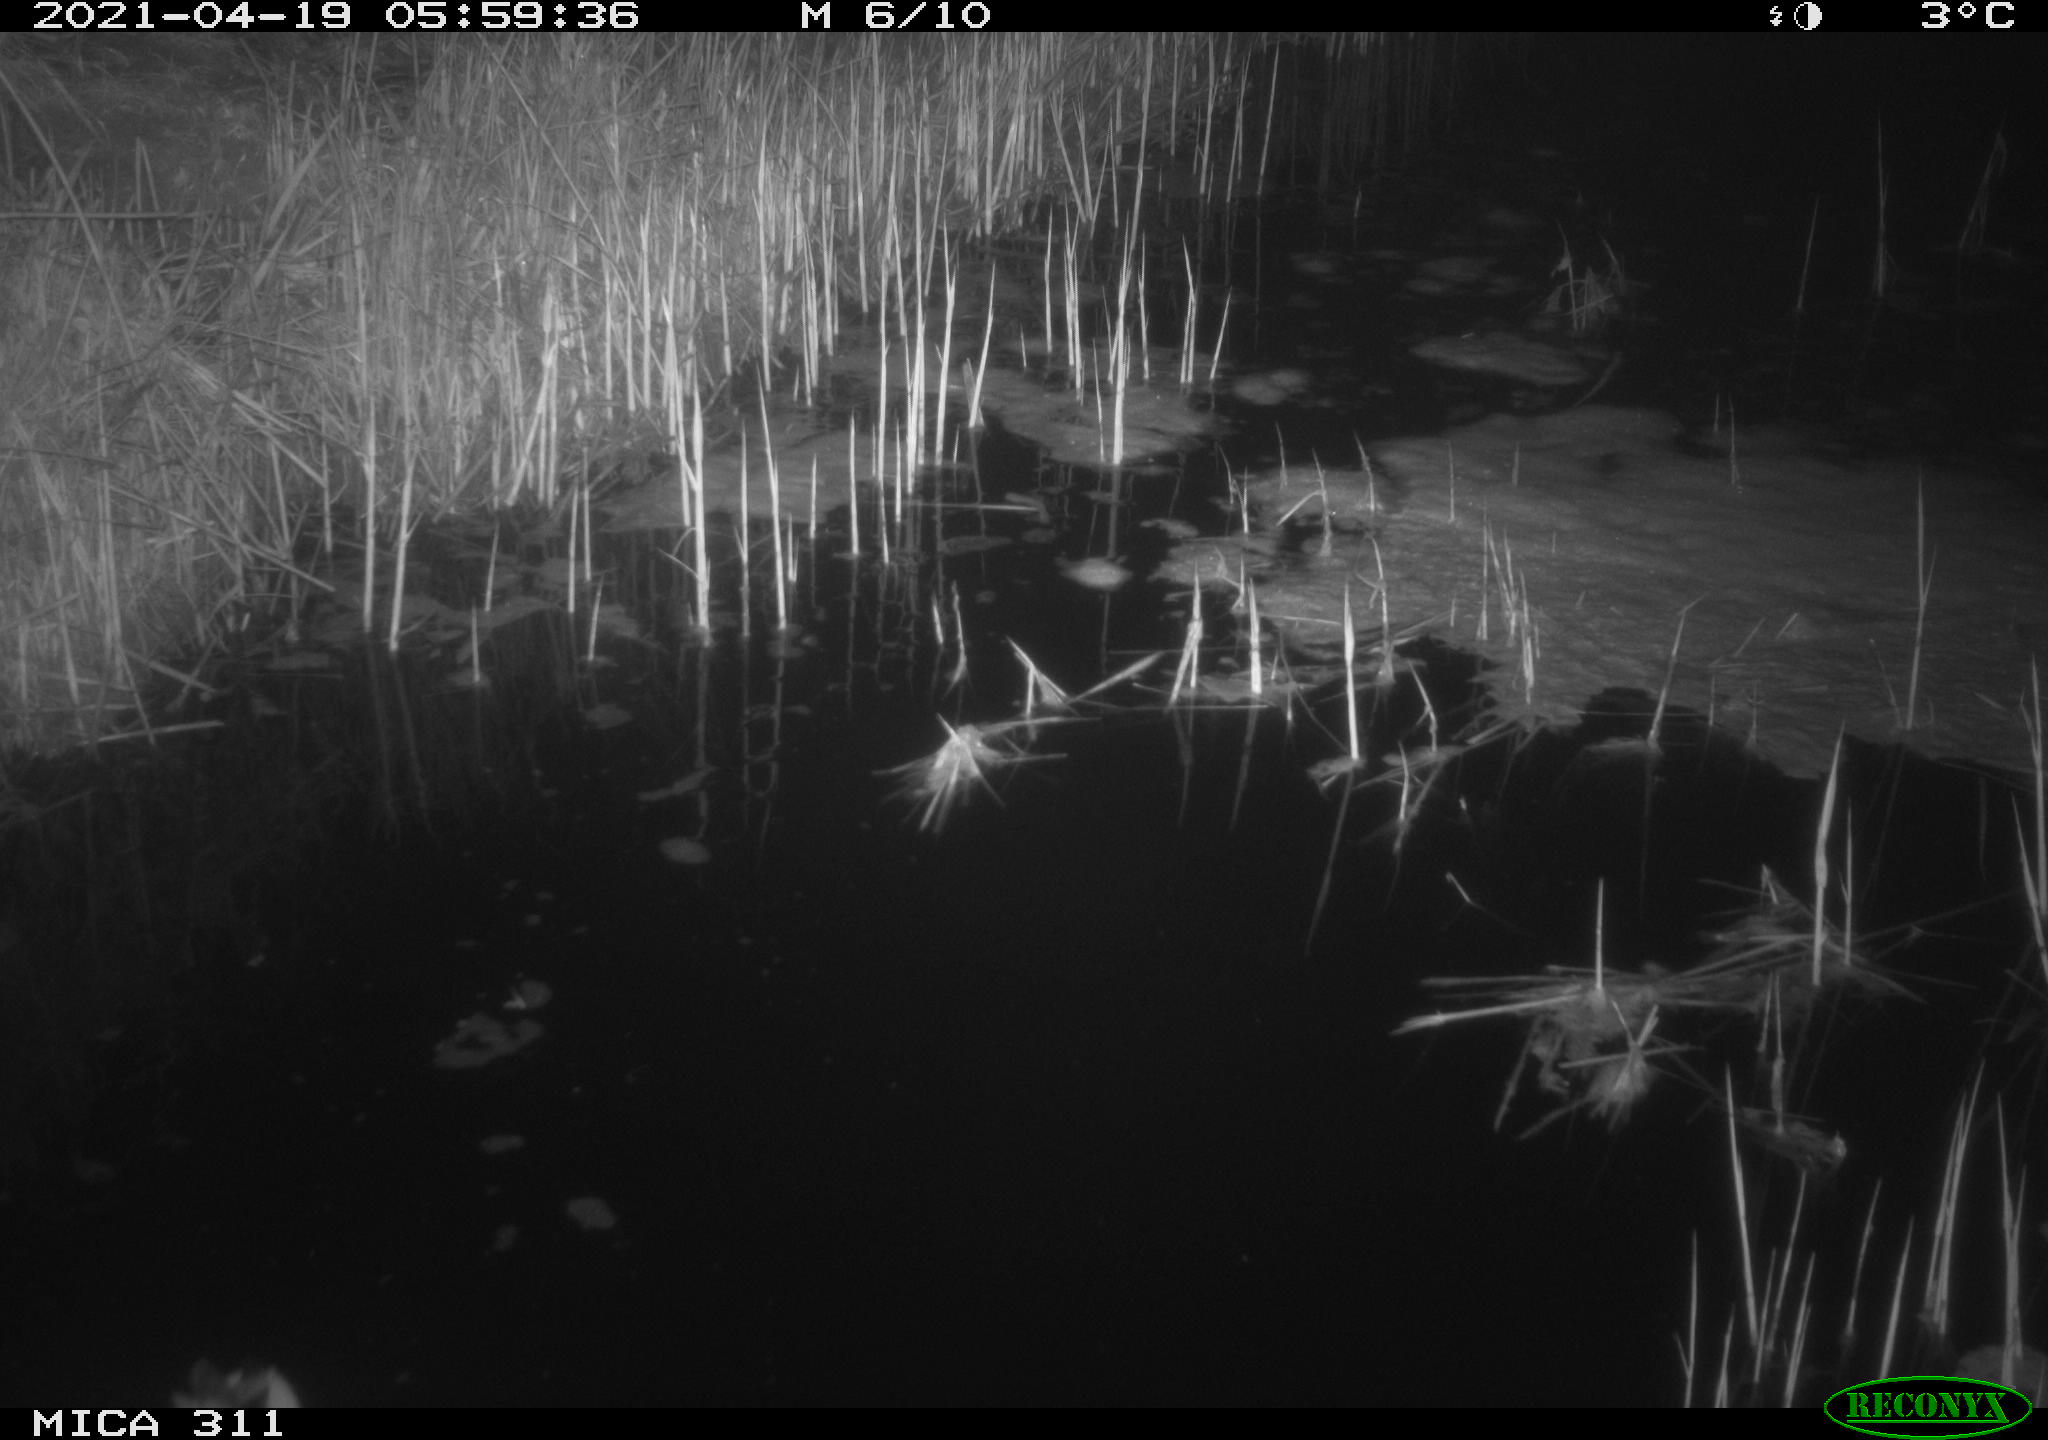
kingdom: Animalia
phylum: Chordata
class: Aves
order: Anseriformes
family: Anatidae
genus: Anas
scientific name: Anas platyrhynchos
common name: Mallard
